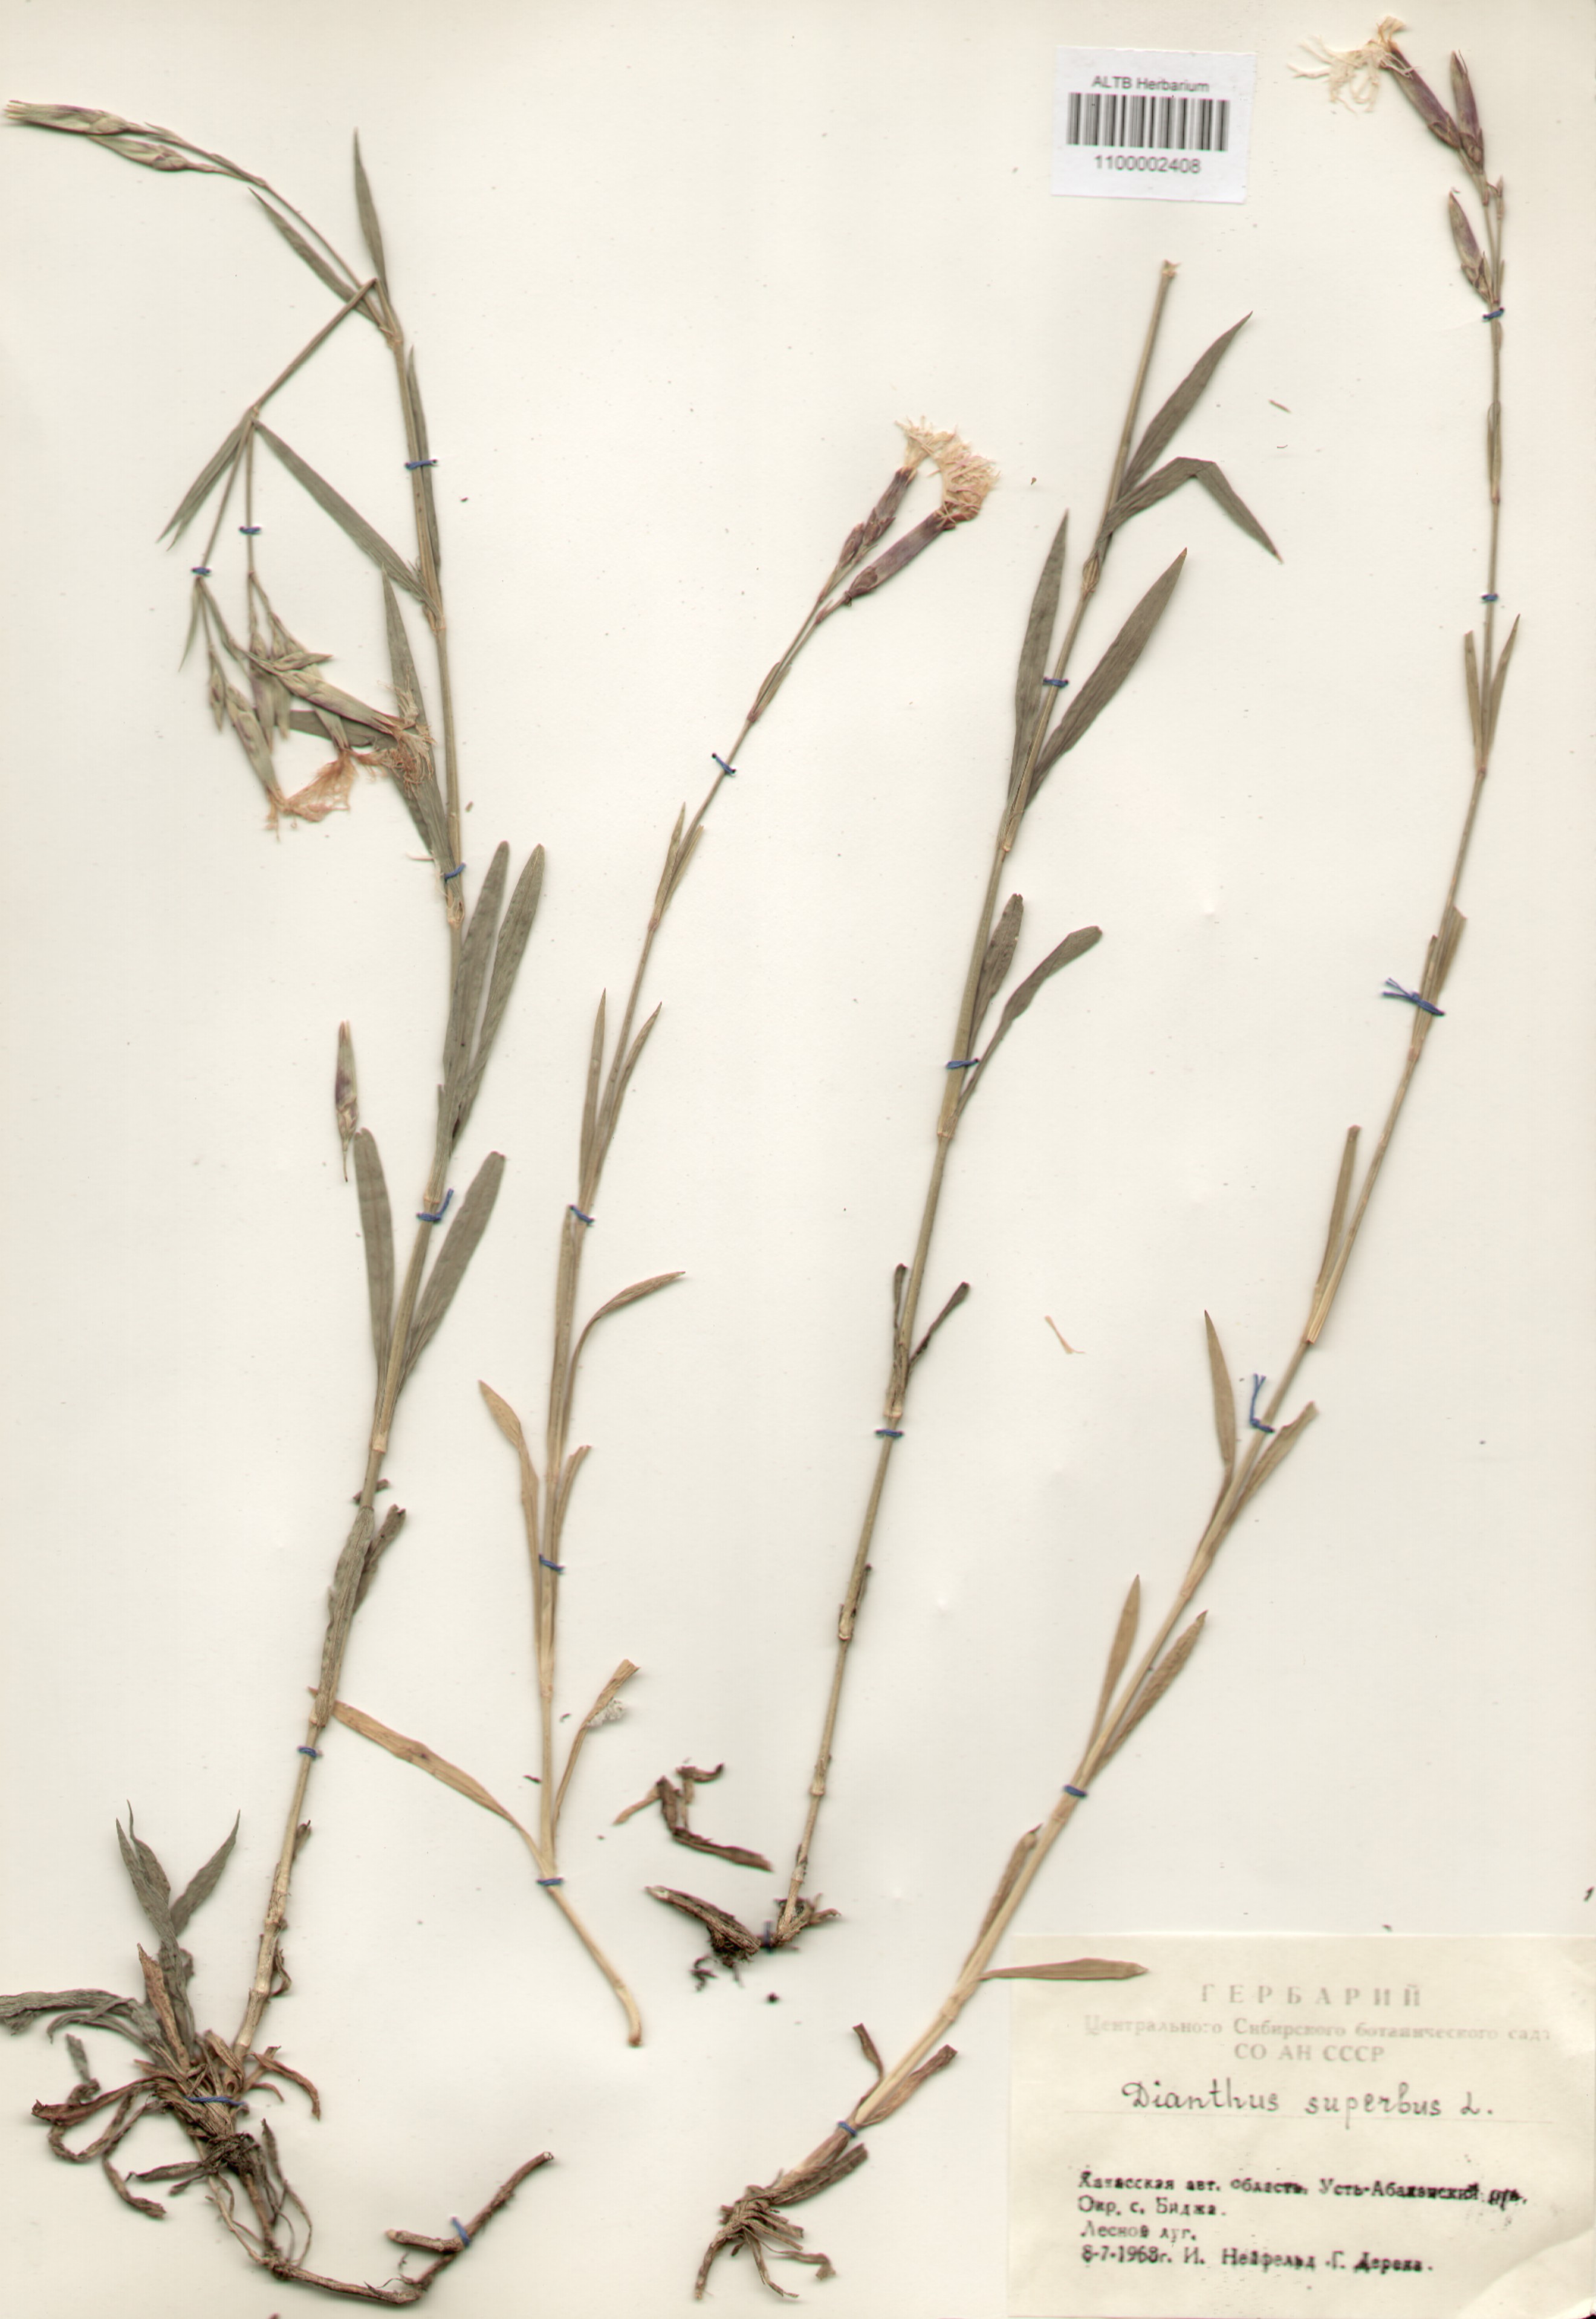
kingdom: Plantae
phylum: Tracheophyta
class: Magnoliopsida
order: Caryophyllales
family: Caryophyllaceae
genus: Dianthus
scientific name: Dianthus superbus
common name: Fringed pink
